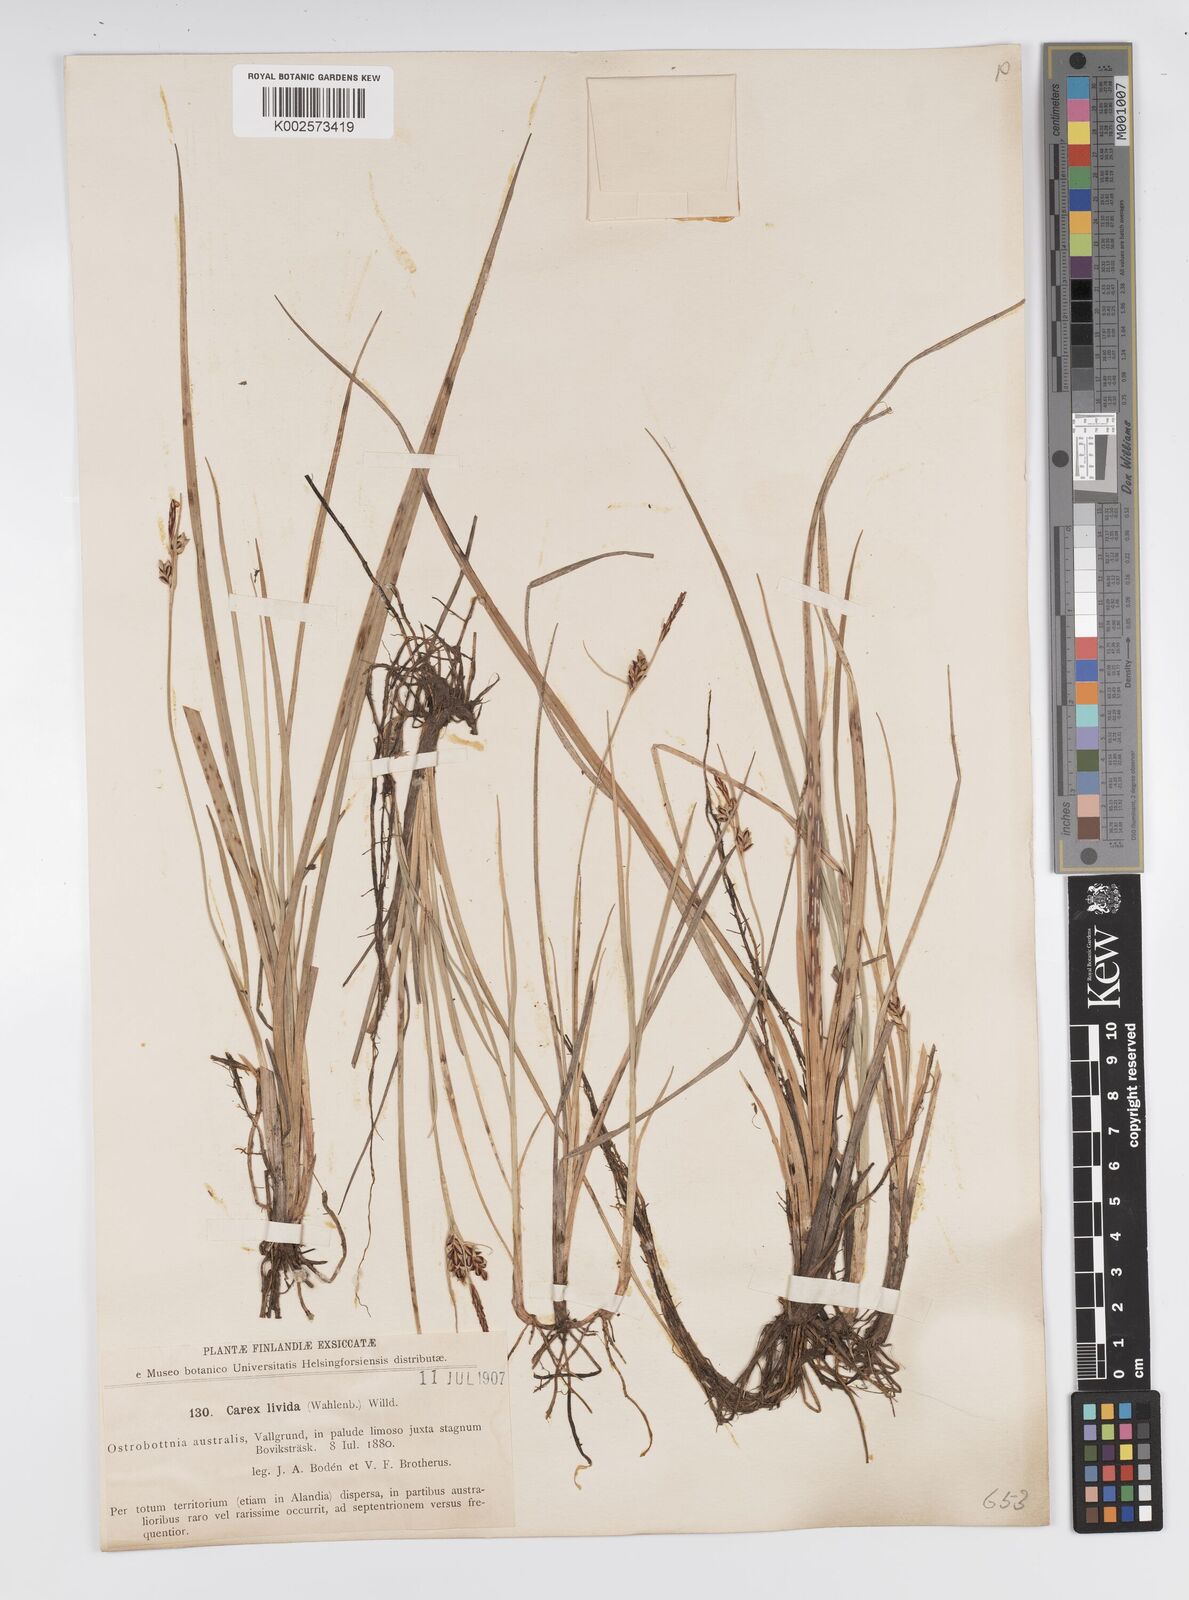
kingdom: Plantae
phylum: Tracheophyta
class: Liliopsida
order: Poales
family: Cyperaceae
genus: Carex
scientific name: Carex livida
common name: Livid sedge
